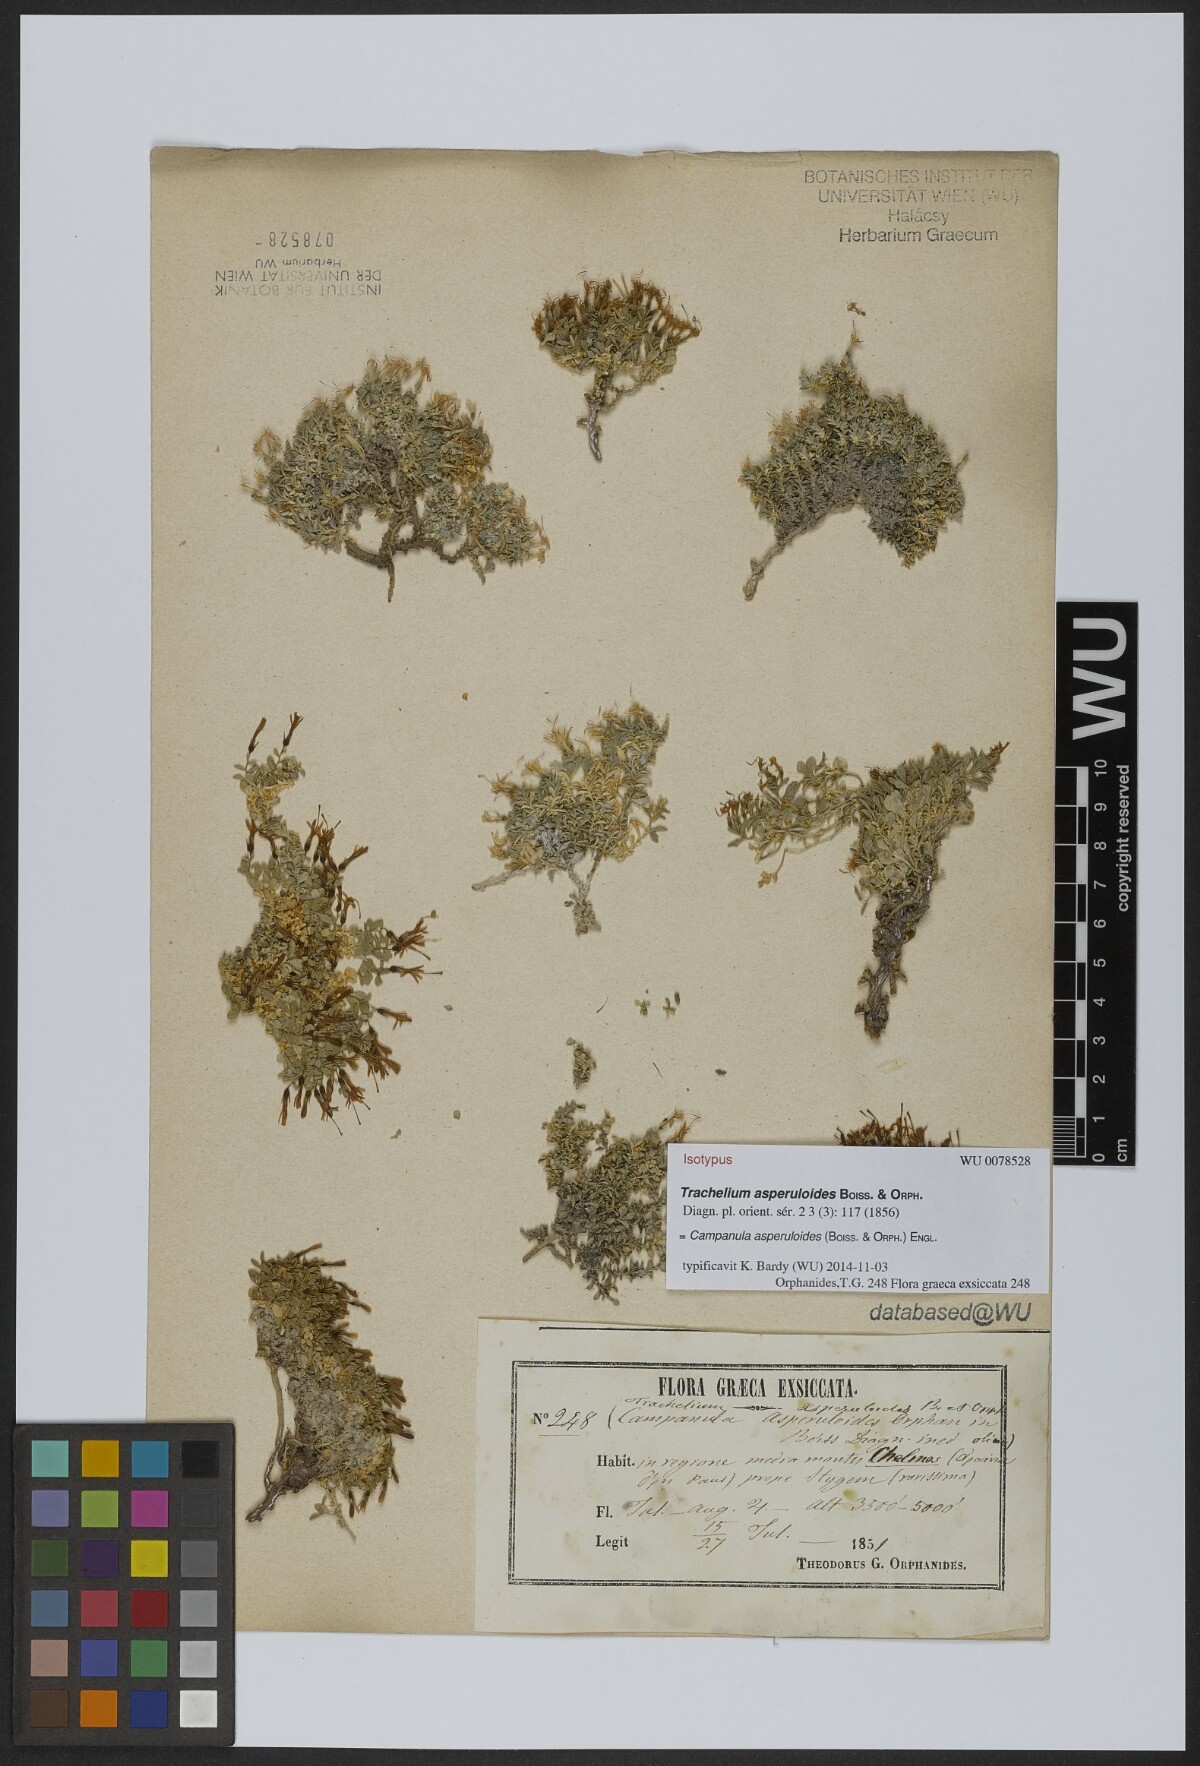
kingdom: Plantae
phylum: Tracheophyta
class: Magnoliopsida
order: Asterales
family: Campanulaceae
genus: Campanula
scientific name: Campanula asperuloides
